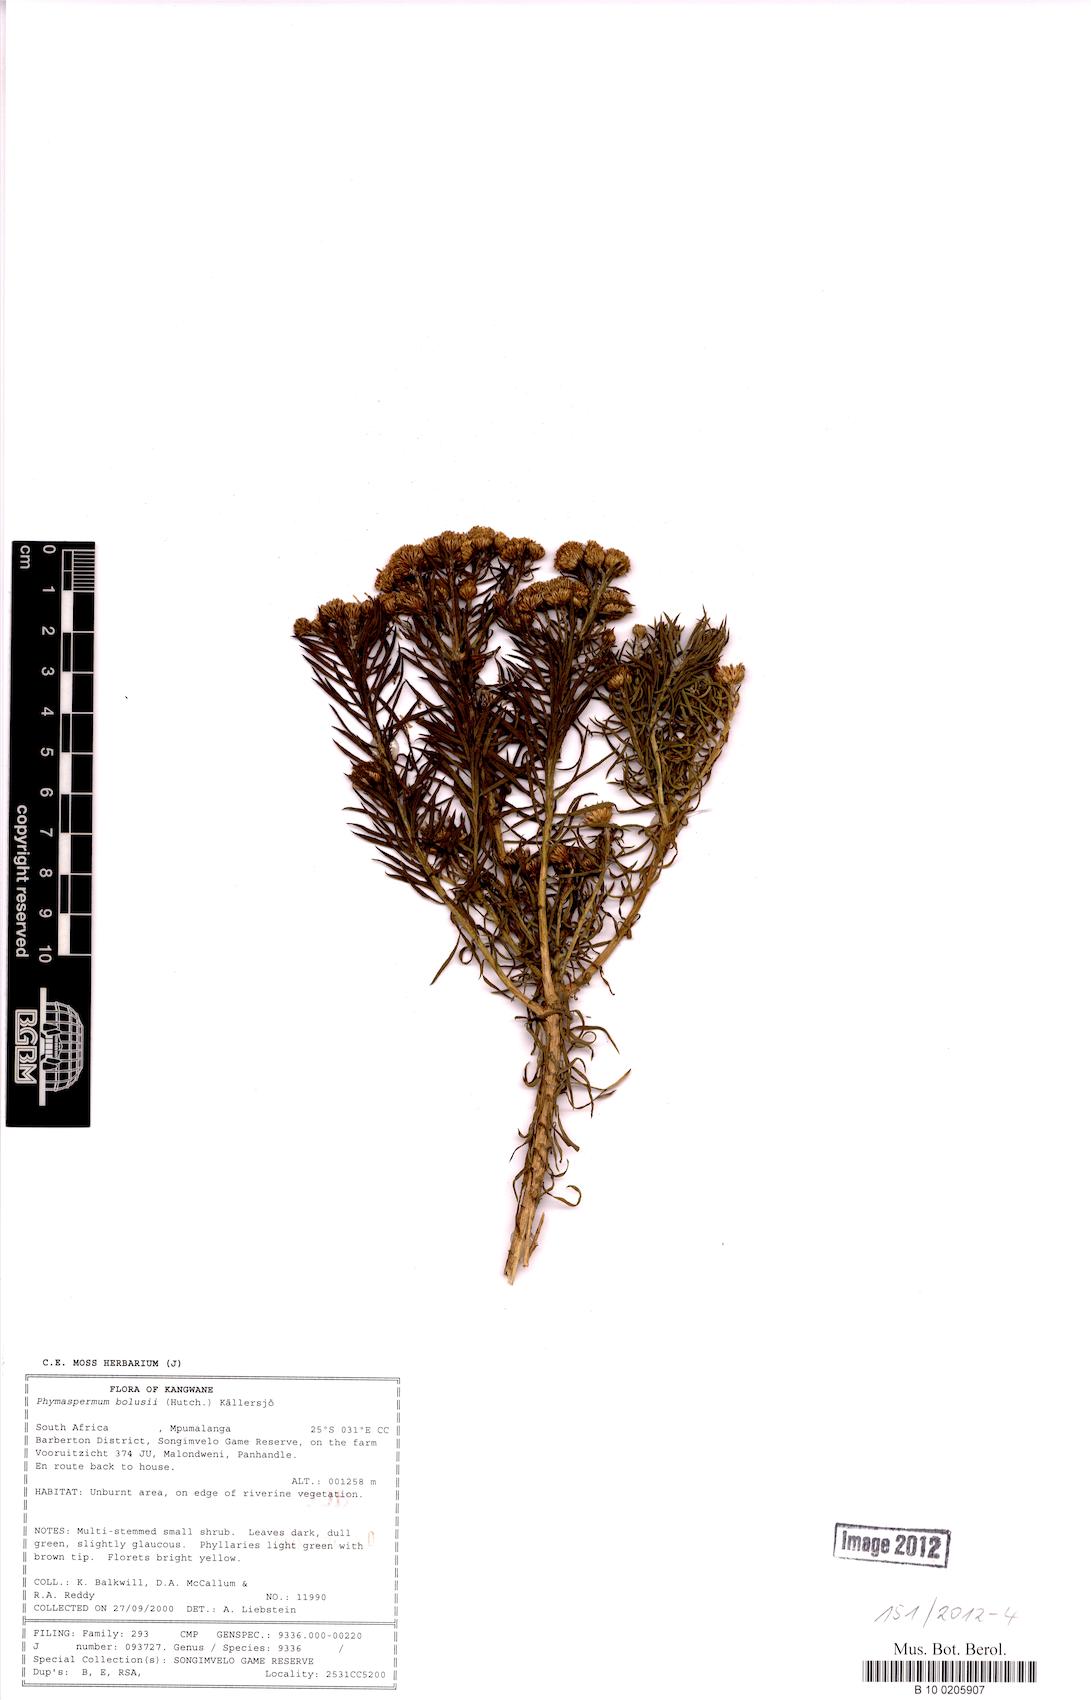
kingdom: Plantae
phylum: Tracheophyta
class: Magnoliopsida
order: Asterales
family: Asteraceae
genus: Phymaspermum
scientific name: Phymaspermum bolusii
